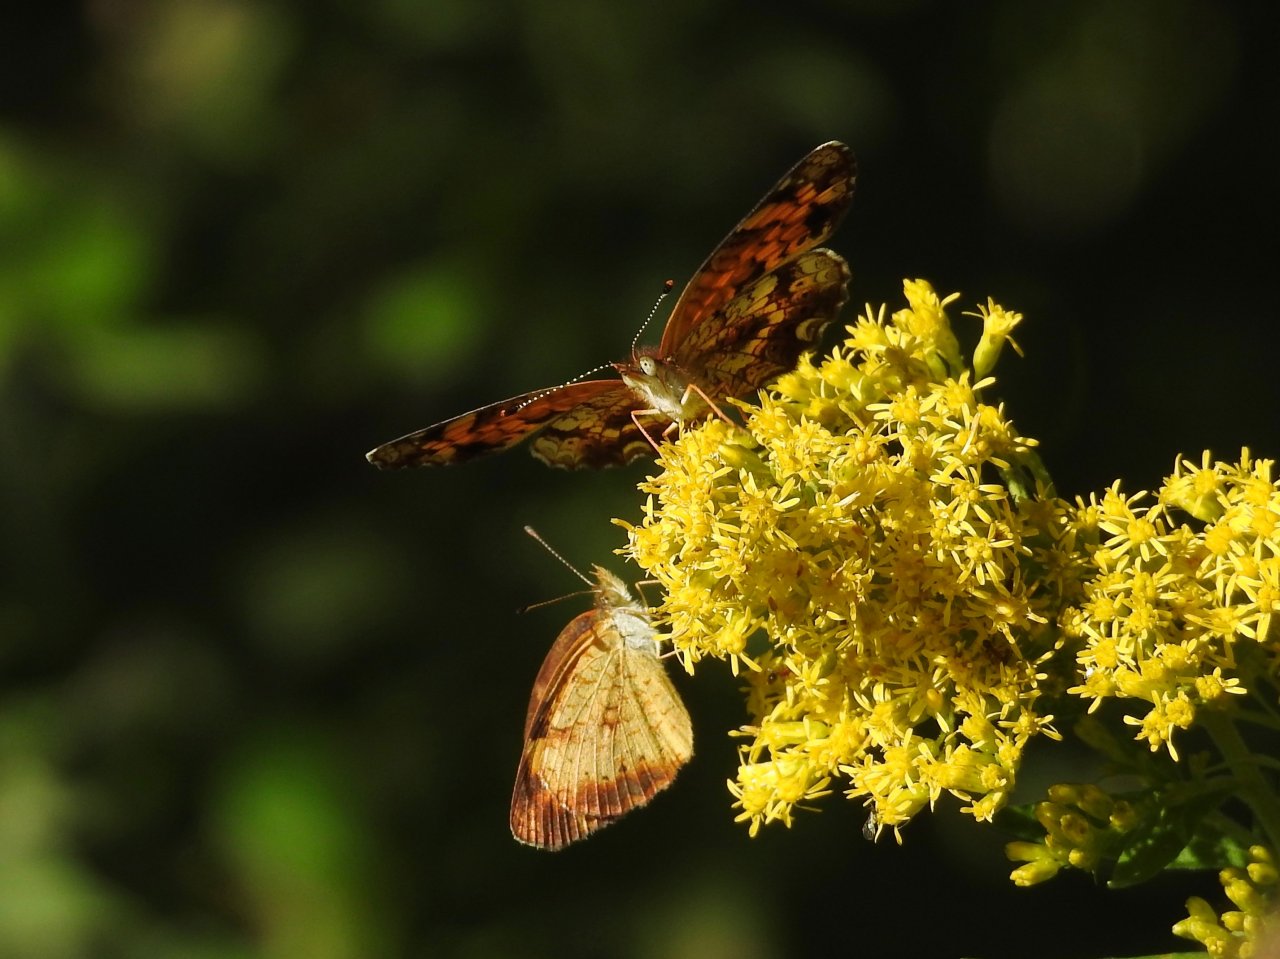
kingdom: Animalia
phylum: Arthropoda
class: Insecta
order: Lepidoptera
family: Nymphalidae
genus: Phyciodes
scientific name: Phyciodes tharos
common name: Pearl Crescent
